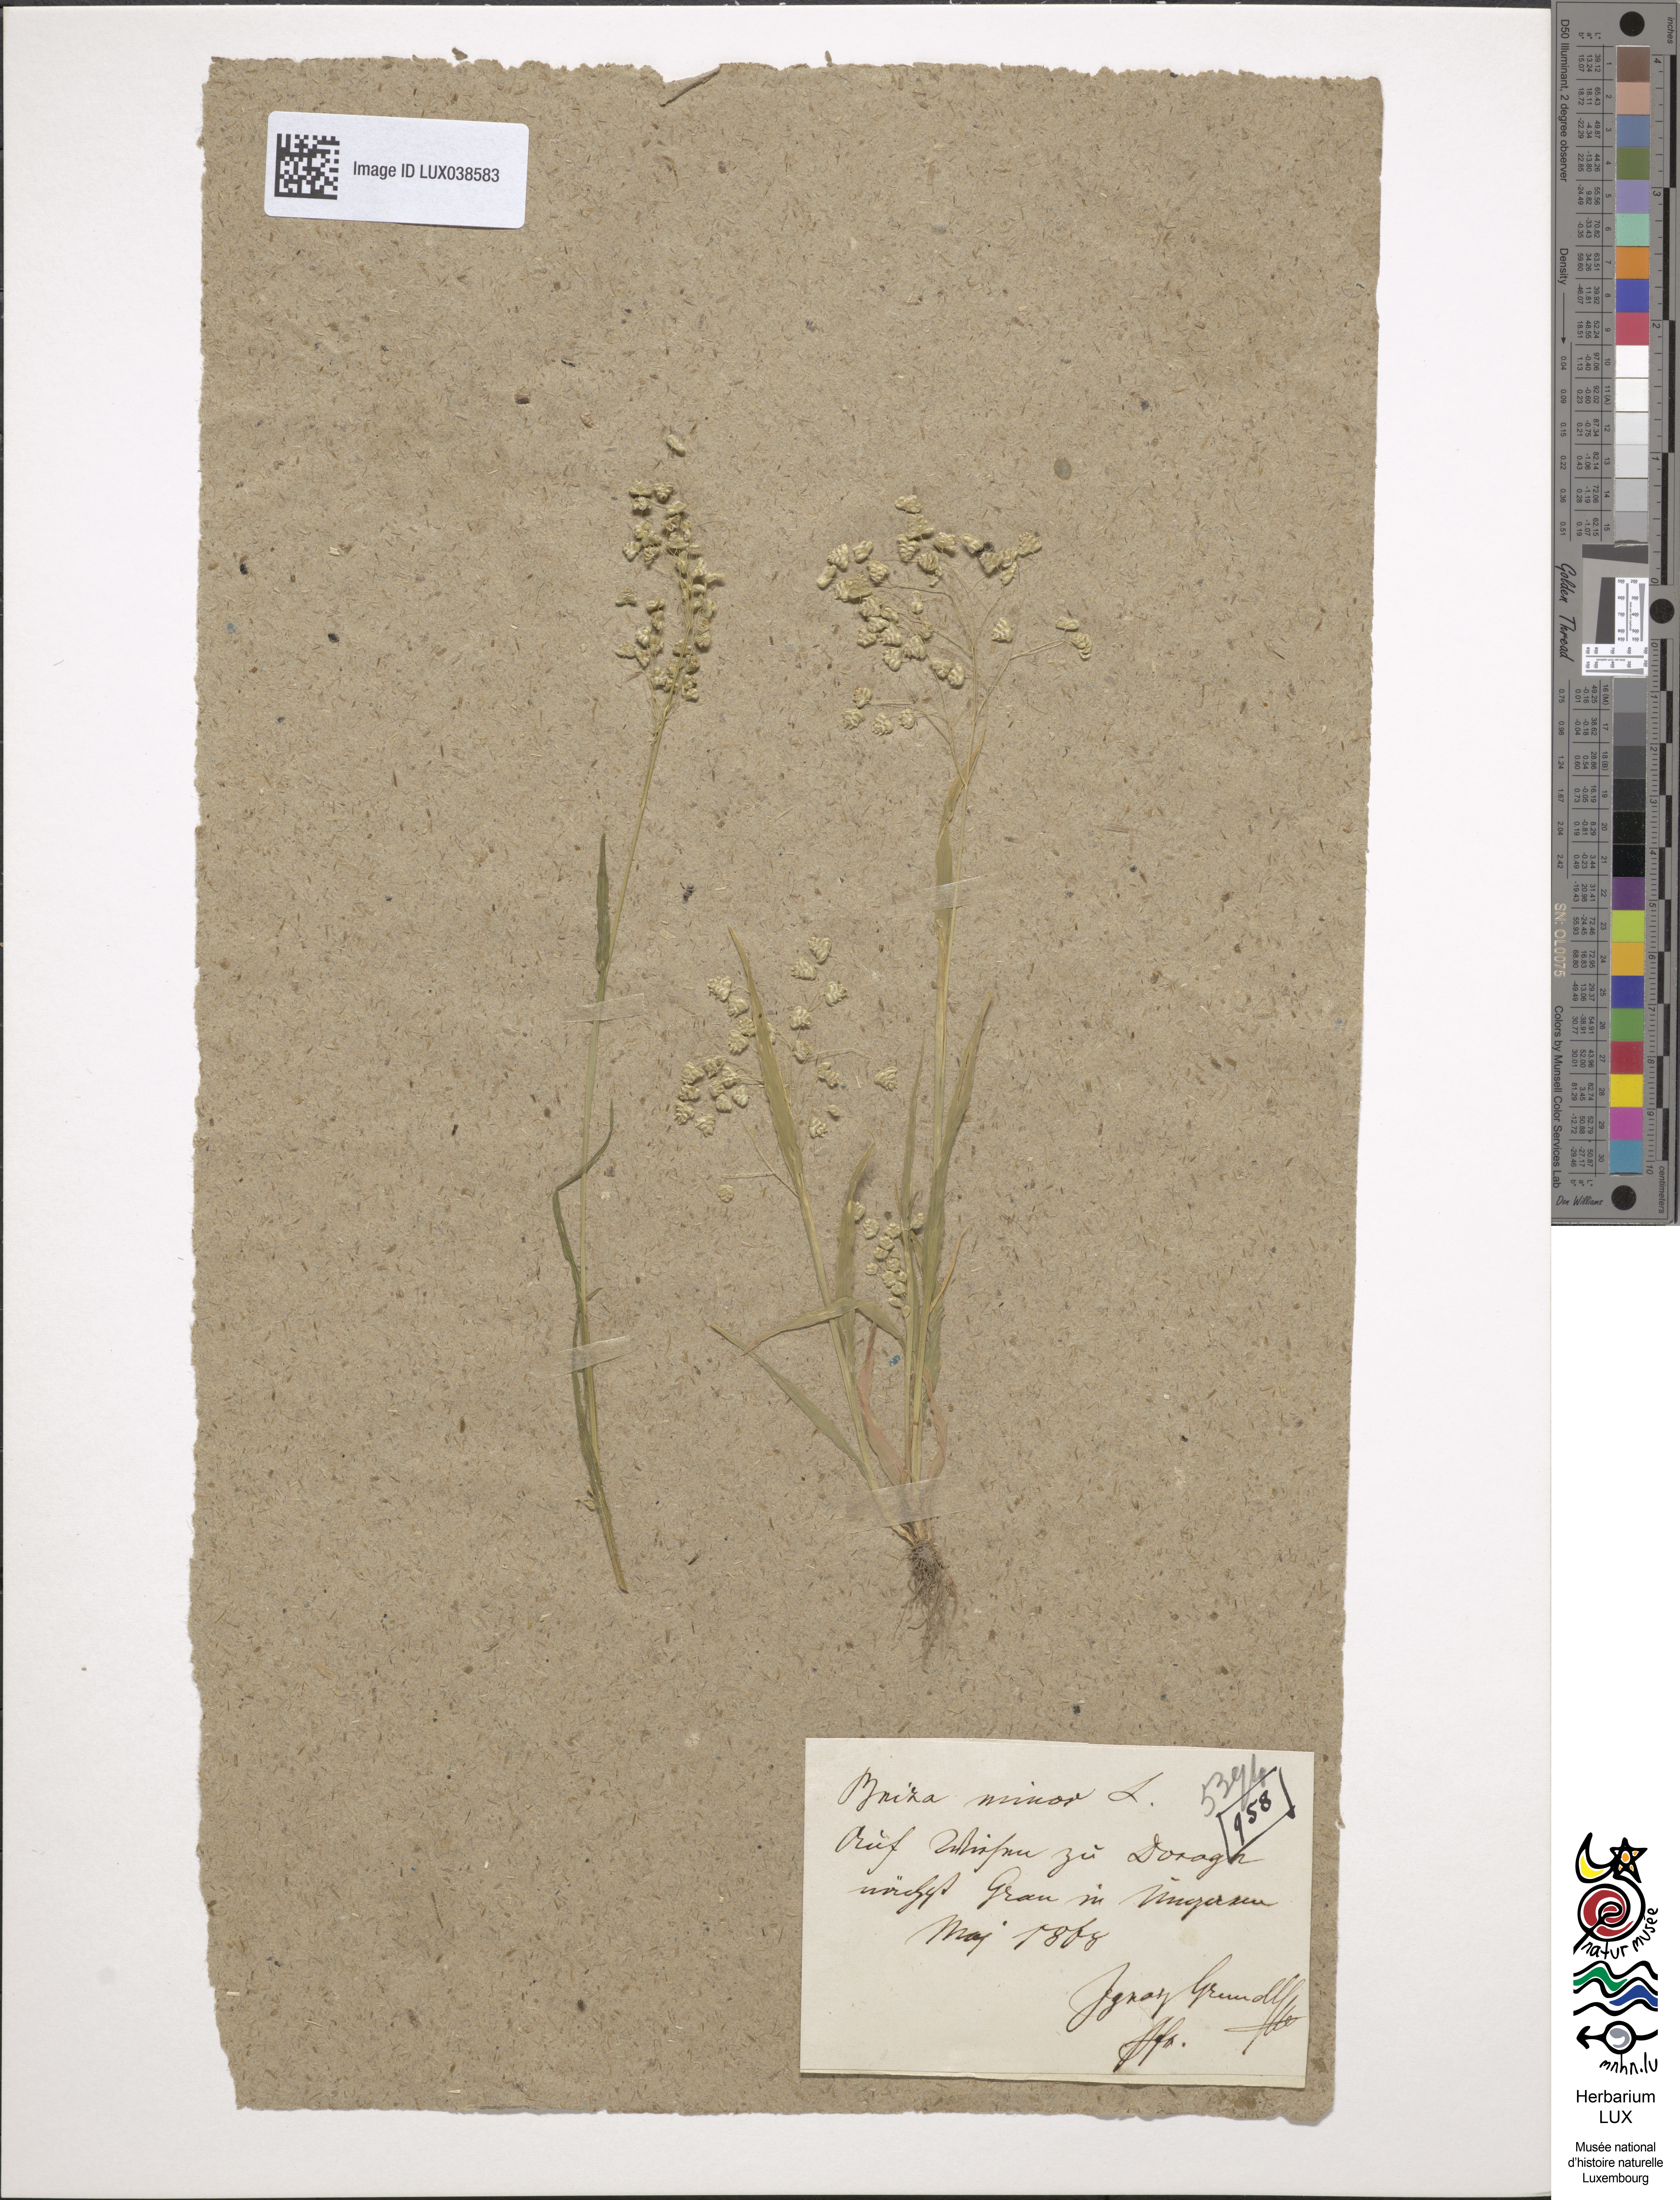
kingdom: Plantae
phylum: Tracheophyta
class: Liliopsida
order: Poales
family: Poaceae
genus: Briza
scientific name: Briza minor
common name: Lesser quaking-grass
